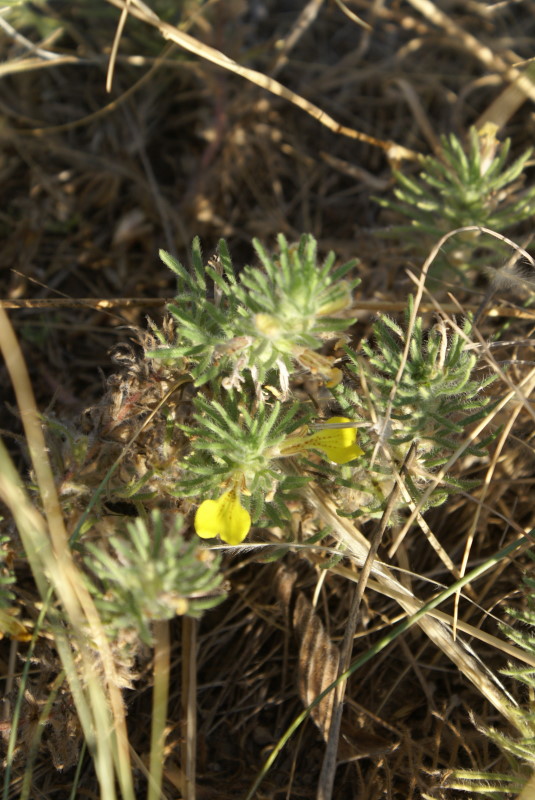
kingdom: Plantae
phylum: Tracheophyta
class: Magnoliopsida
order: Lamiales
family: Lamiaceae
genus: Ajuga
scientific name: Ajuga chamaepitys
